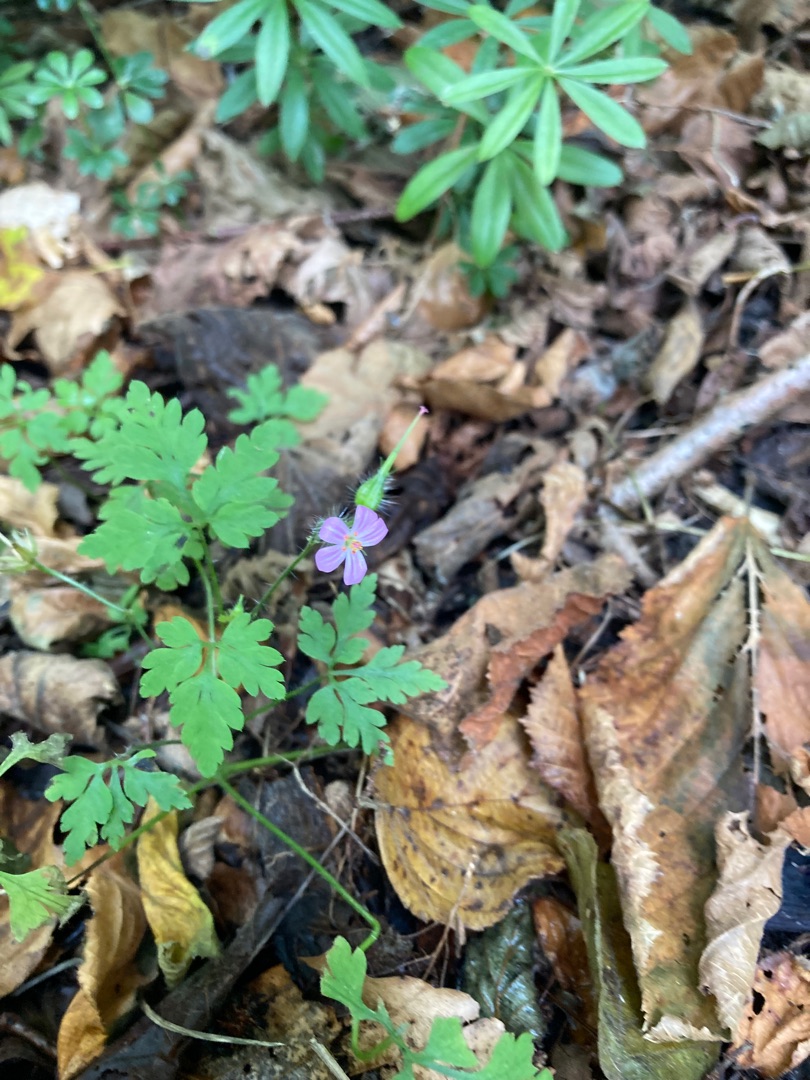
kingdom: Plantae
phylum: Tracheophyta
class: Magnoliopsida
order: Geraniales
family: Geraniaceae
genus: Geranium
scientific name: Geranium robertianum
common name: Stinkende storkenæb
